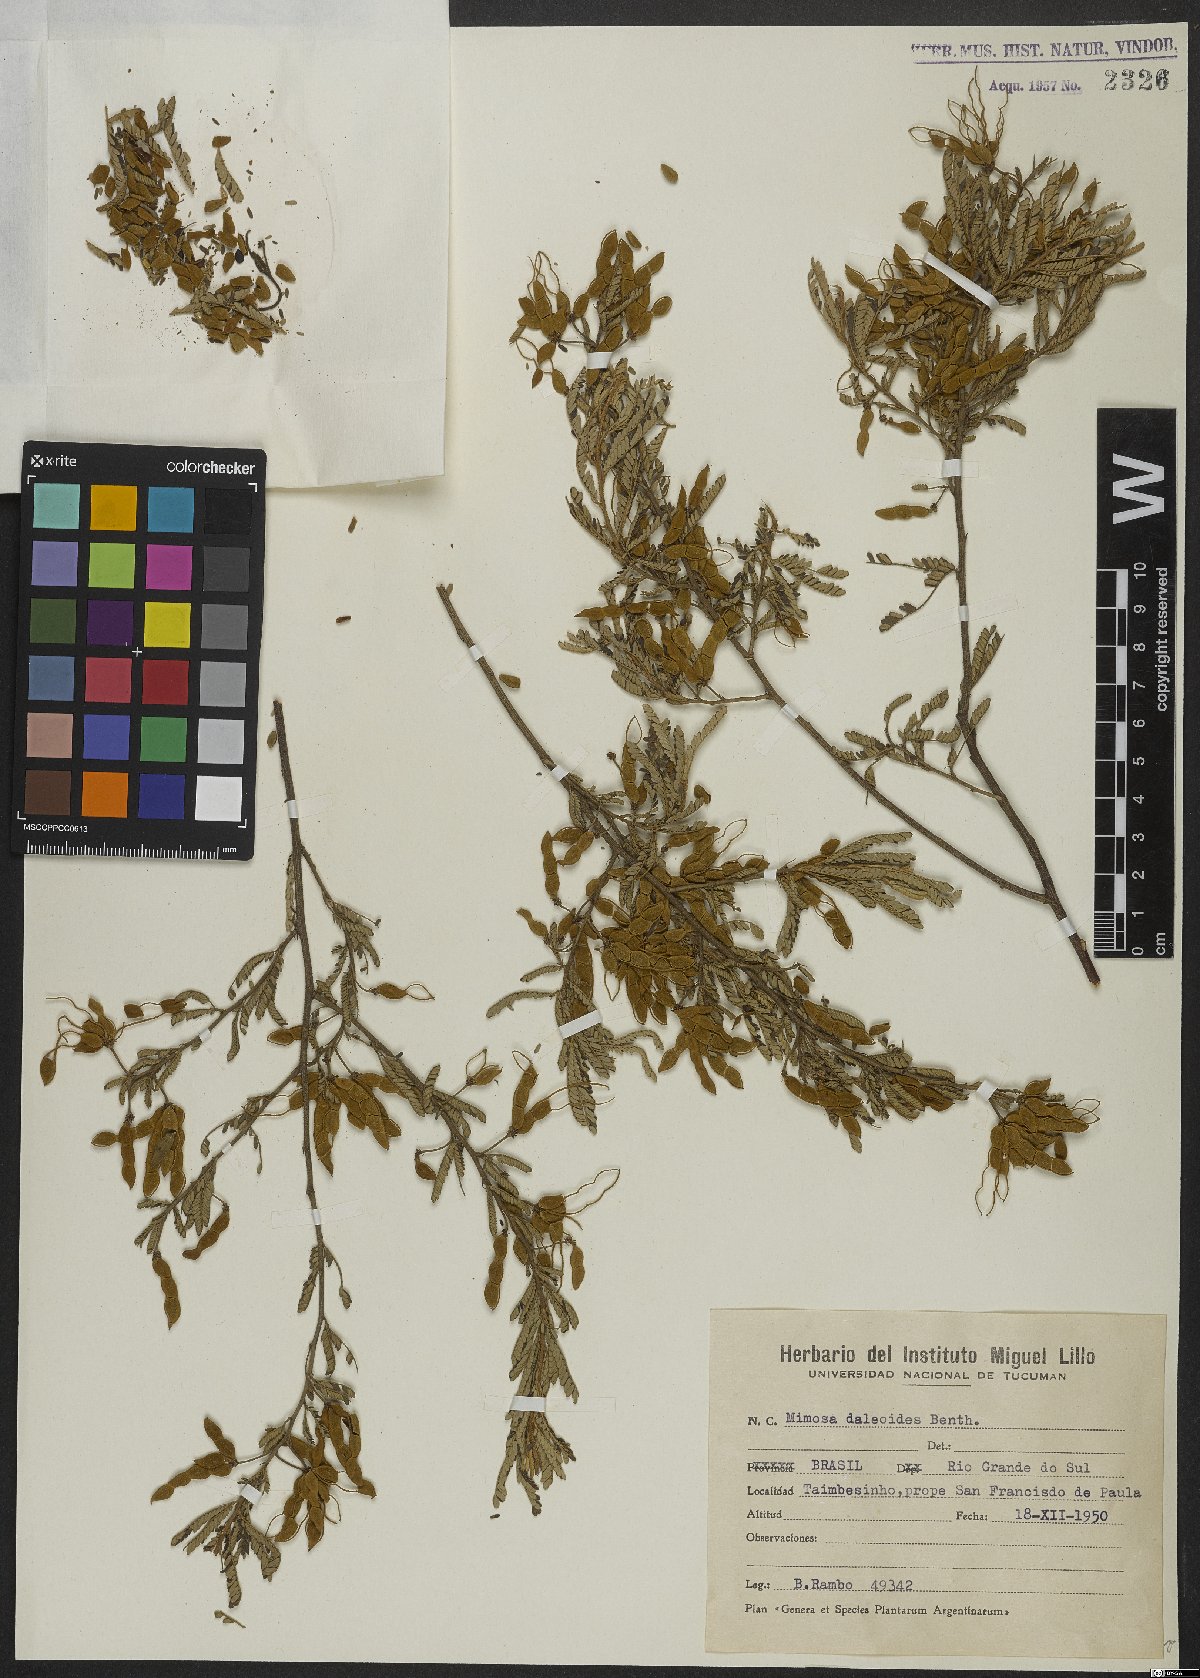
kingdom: Plantae
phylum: Tracheophyta
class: Magnoliopsida
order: Fabales
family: Fabaceae
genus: Mimosa
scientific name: Mimosa daleoides
